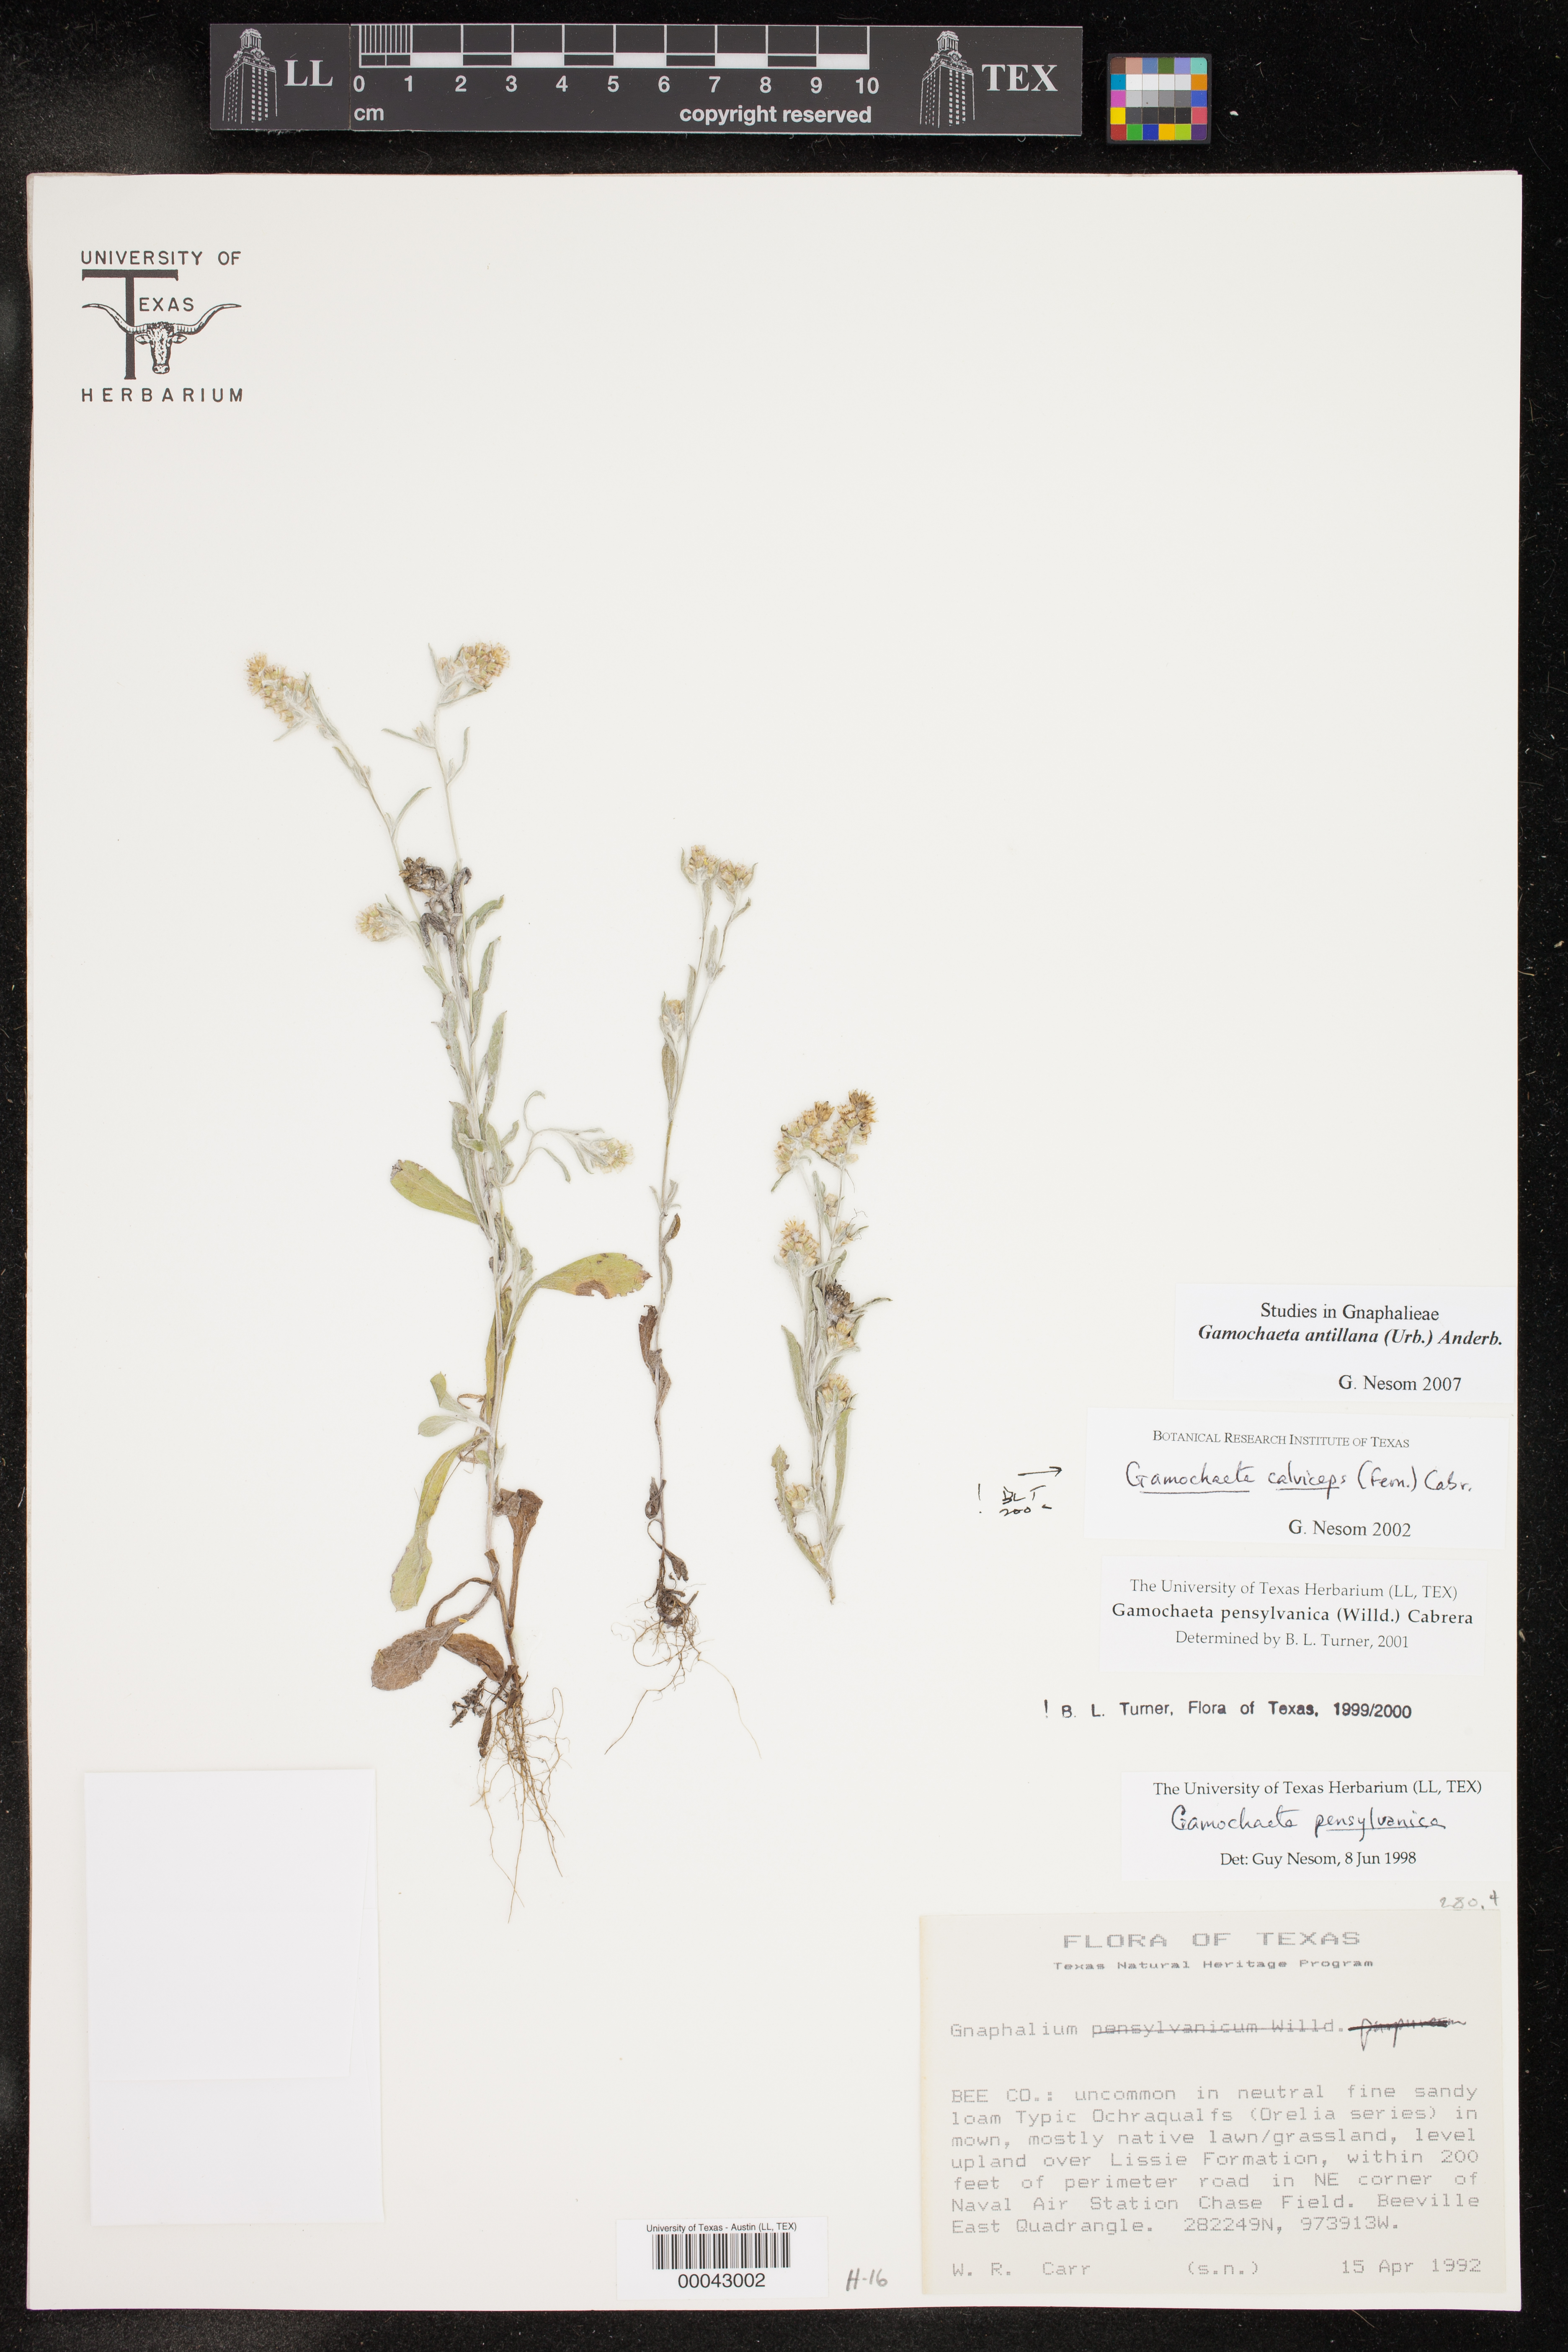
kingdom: Plantae
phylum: Tracheophyta
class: Magnoliopsida
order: Asterales
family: Asteraceae
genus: Gamochaeta
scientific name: Gamochaeta antillana
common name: Delicate everlasting
